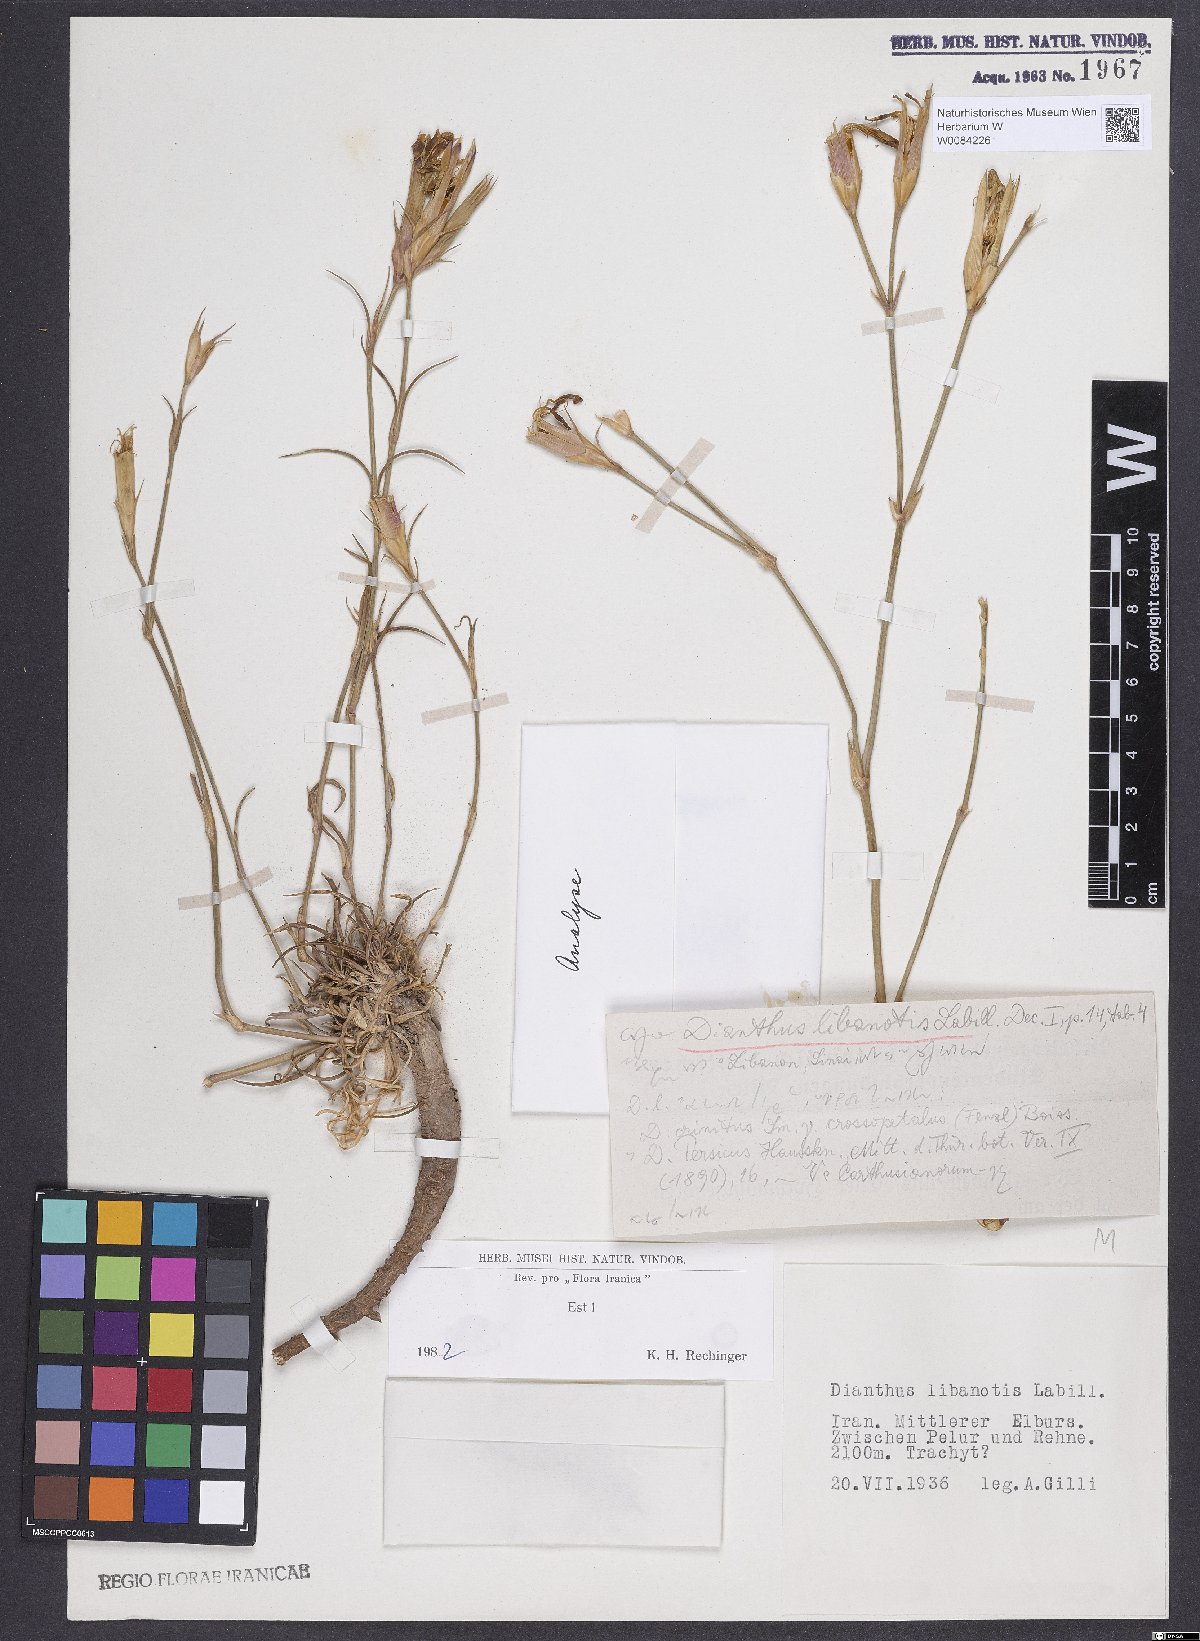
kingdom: Plantae
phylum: Tracheophyta
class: Magnoliopsida
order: Caryophyllales
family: Caryophyllaceae
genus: Dianthus
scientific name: Dianthus libanotis
